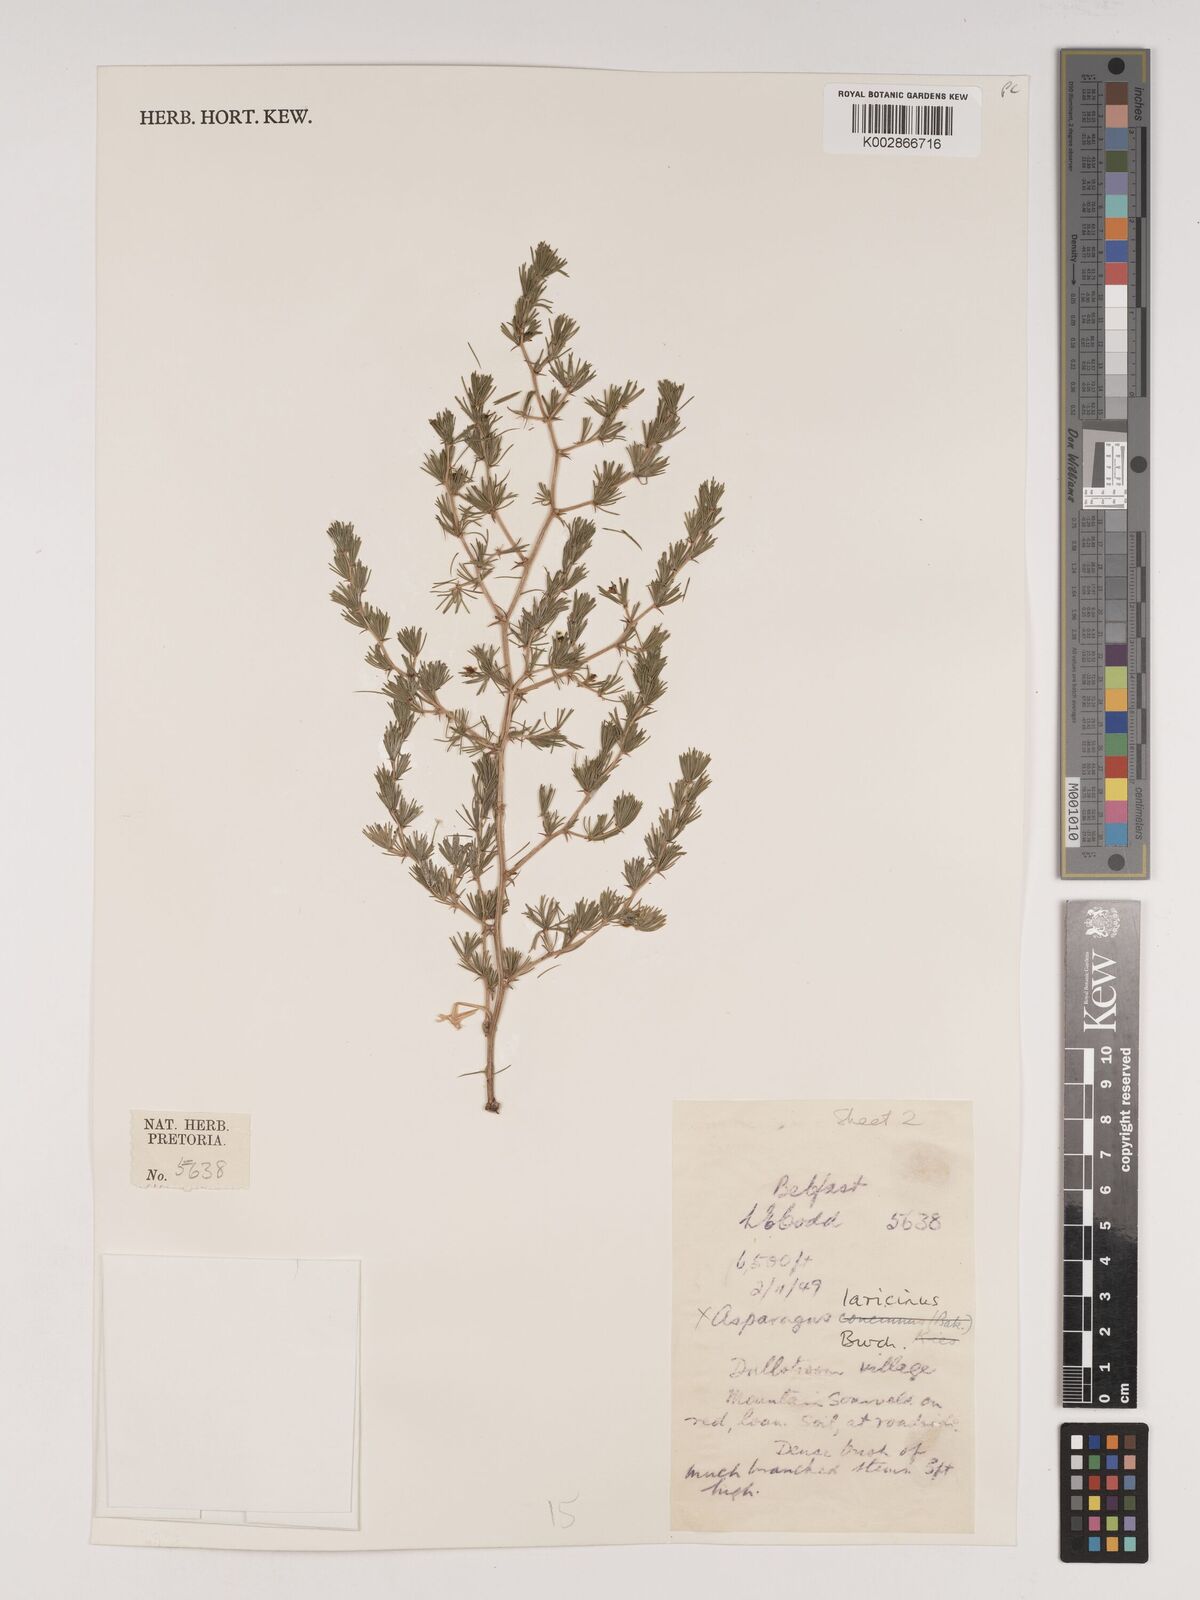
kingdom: Plantae
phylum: Tracheophyta
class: Liliopsida
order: Asparagales
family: Asparagaceae
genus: Asparagus
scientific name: Asparagus laricinus
